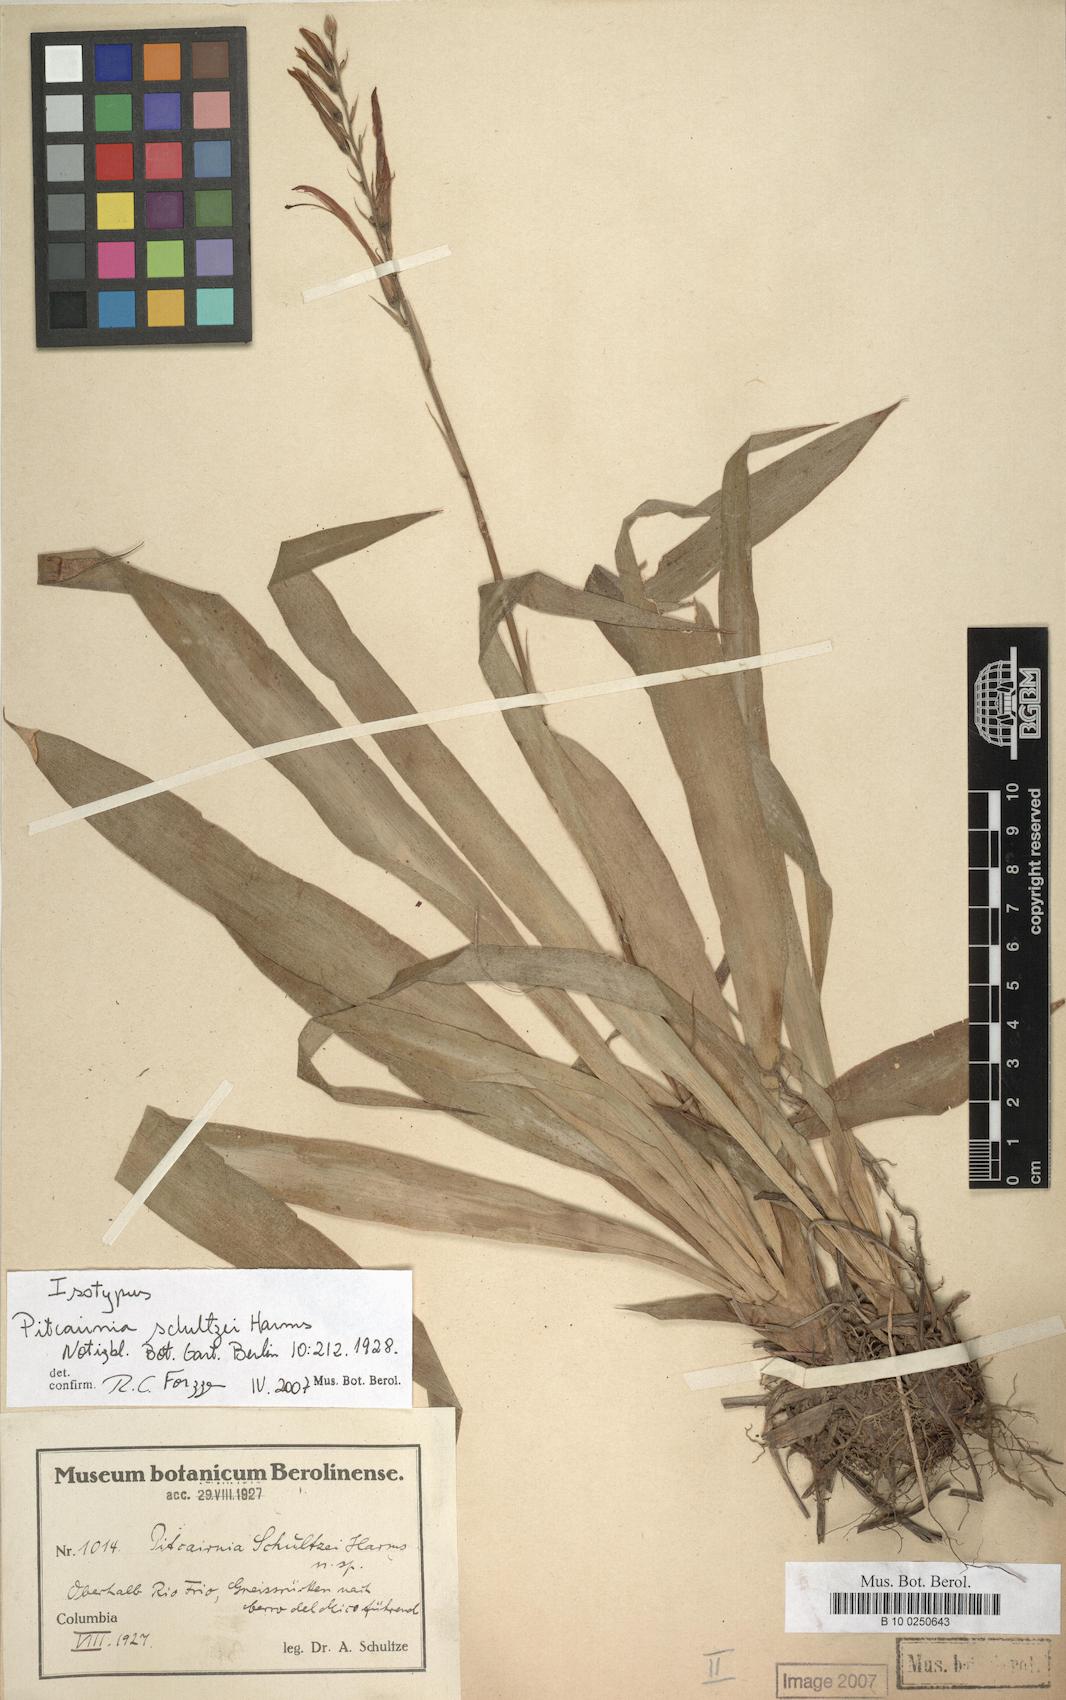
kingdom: Plantae
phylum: Tracheophyta
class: Liliopsida
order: Poales
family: Bromeliaceae
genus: Pitcairnia
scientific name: Pitcairnia schultzei
